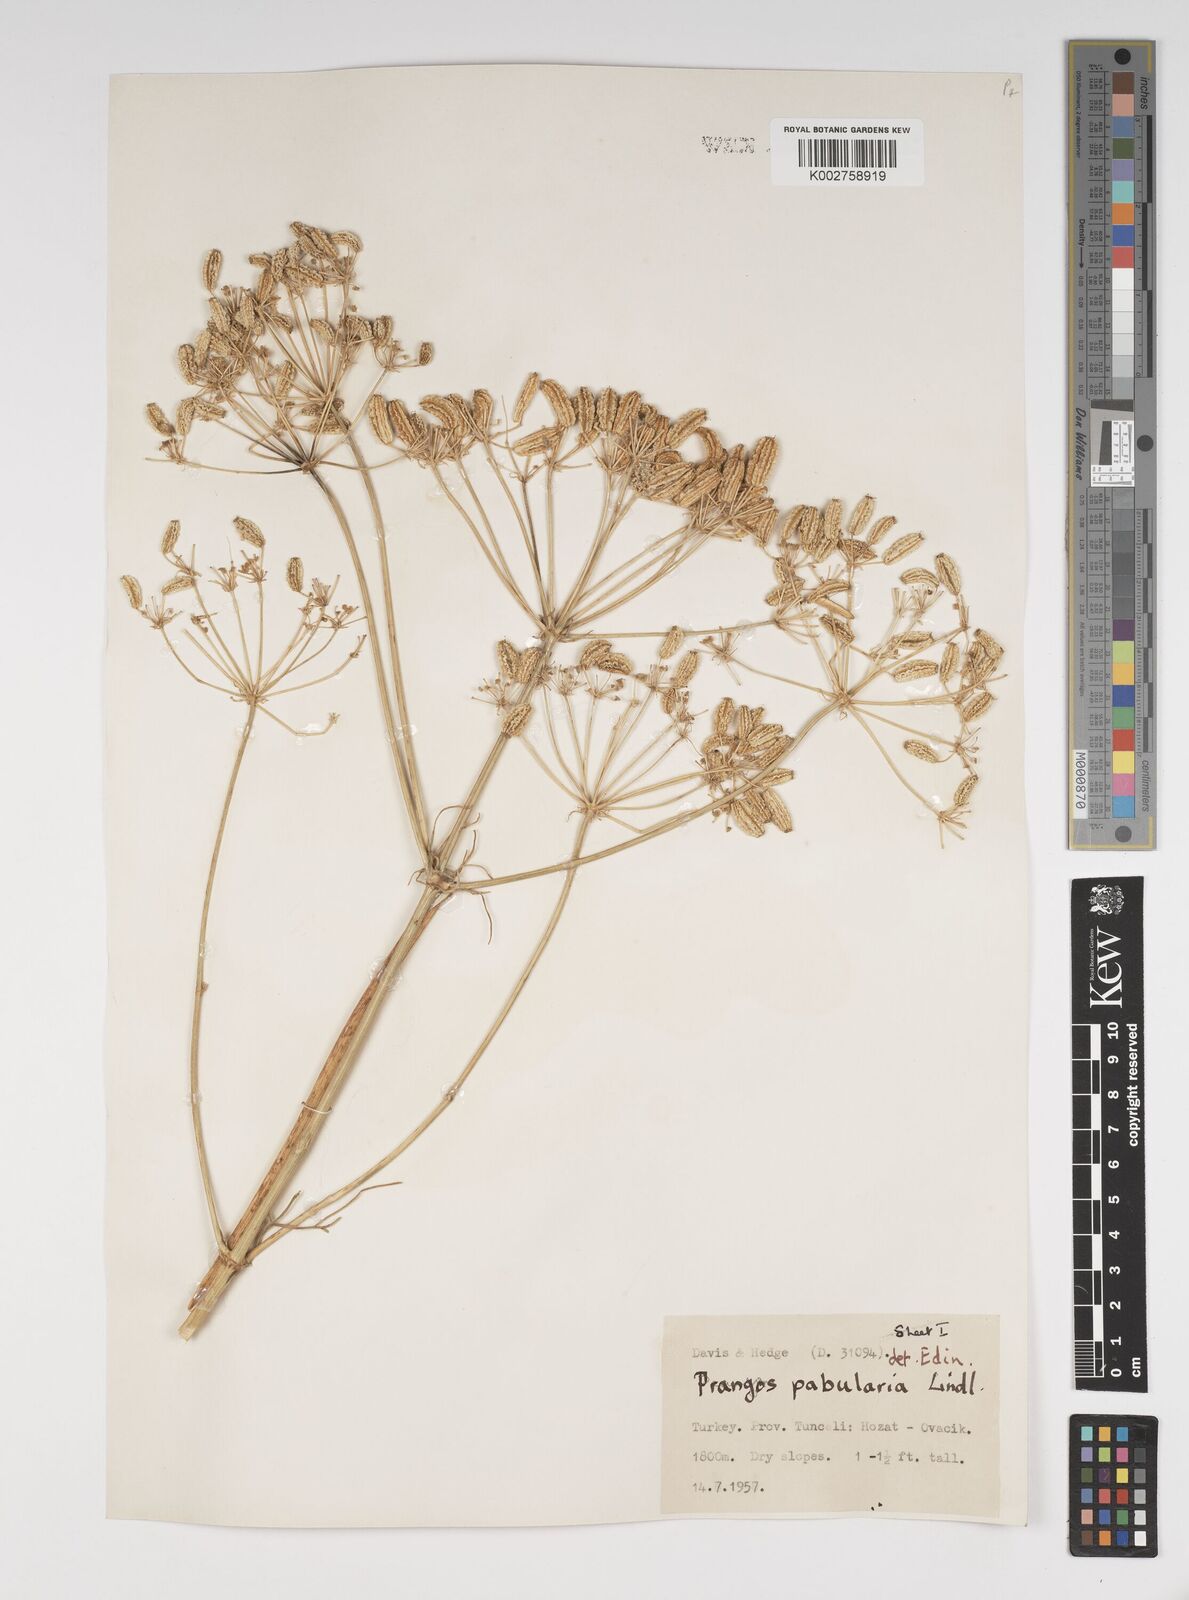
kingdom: Plantae
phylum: Tracheophyta
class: Magnoliopsida
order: Apiales
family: Apiaceae
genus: Prangos
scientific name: Prangos pabularia
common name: Yugan
